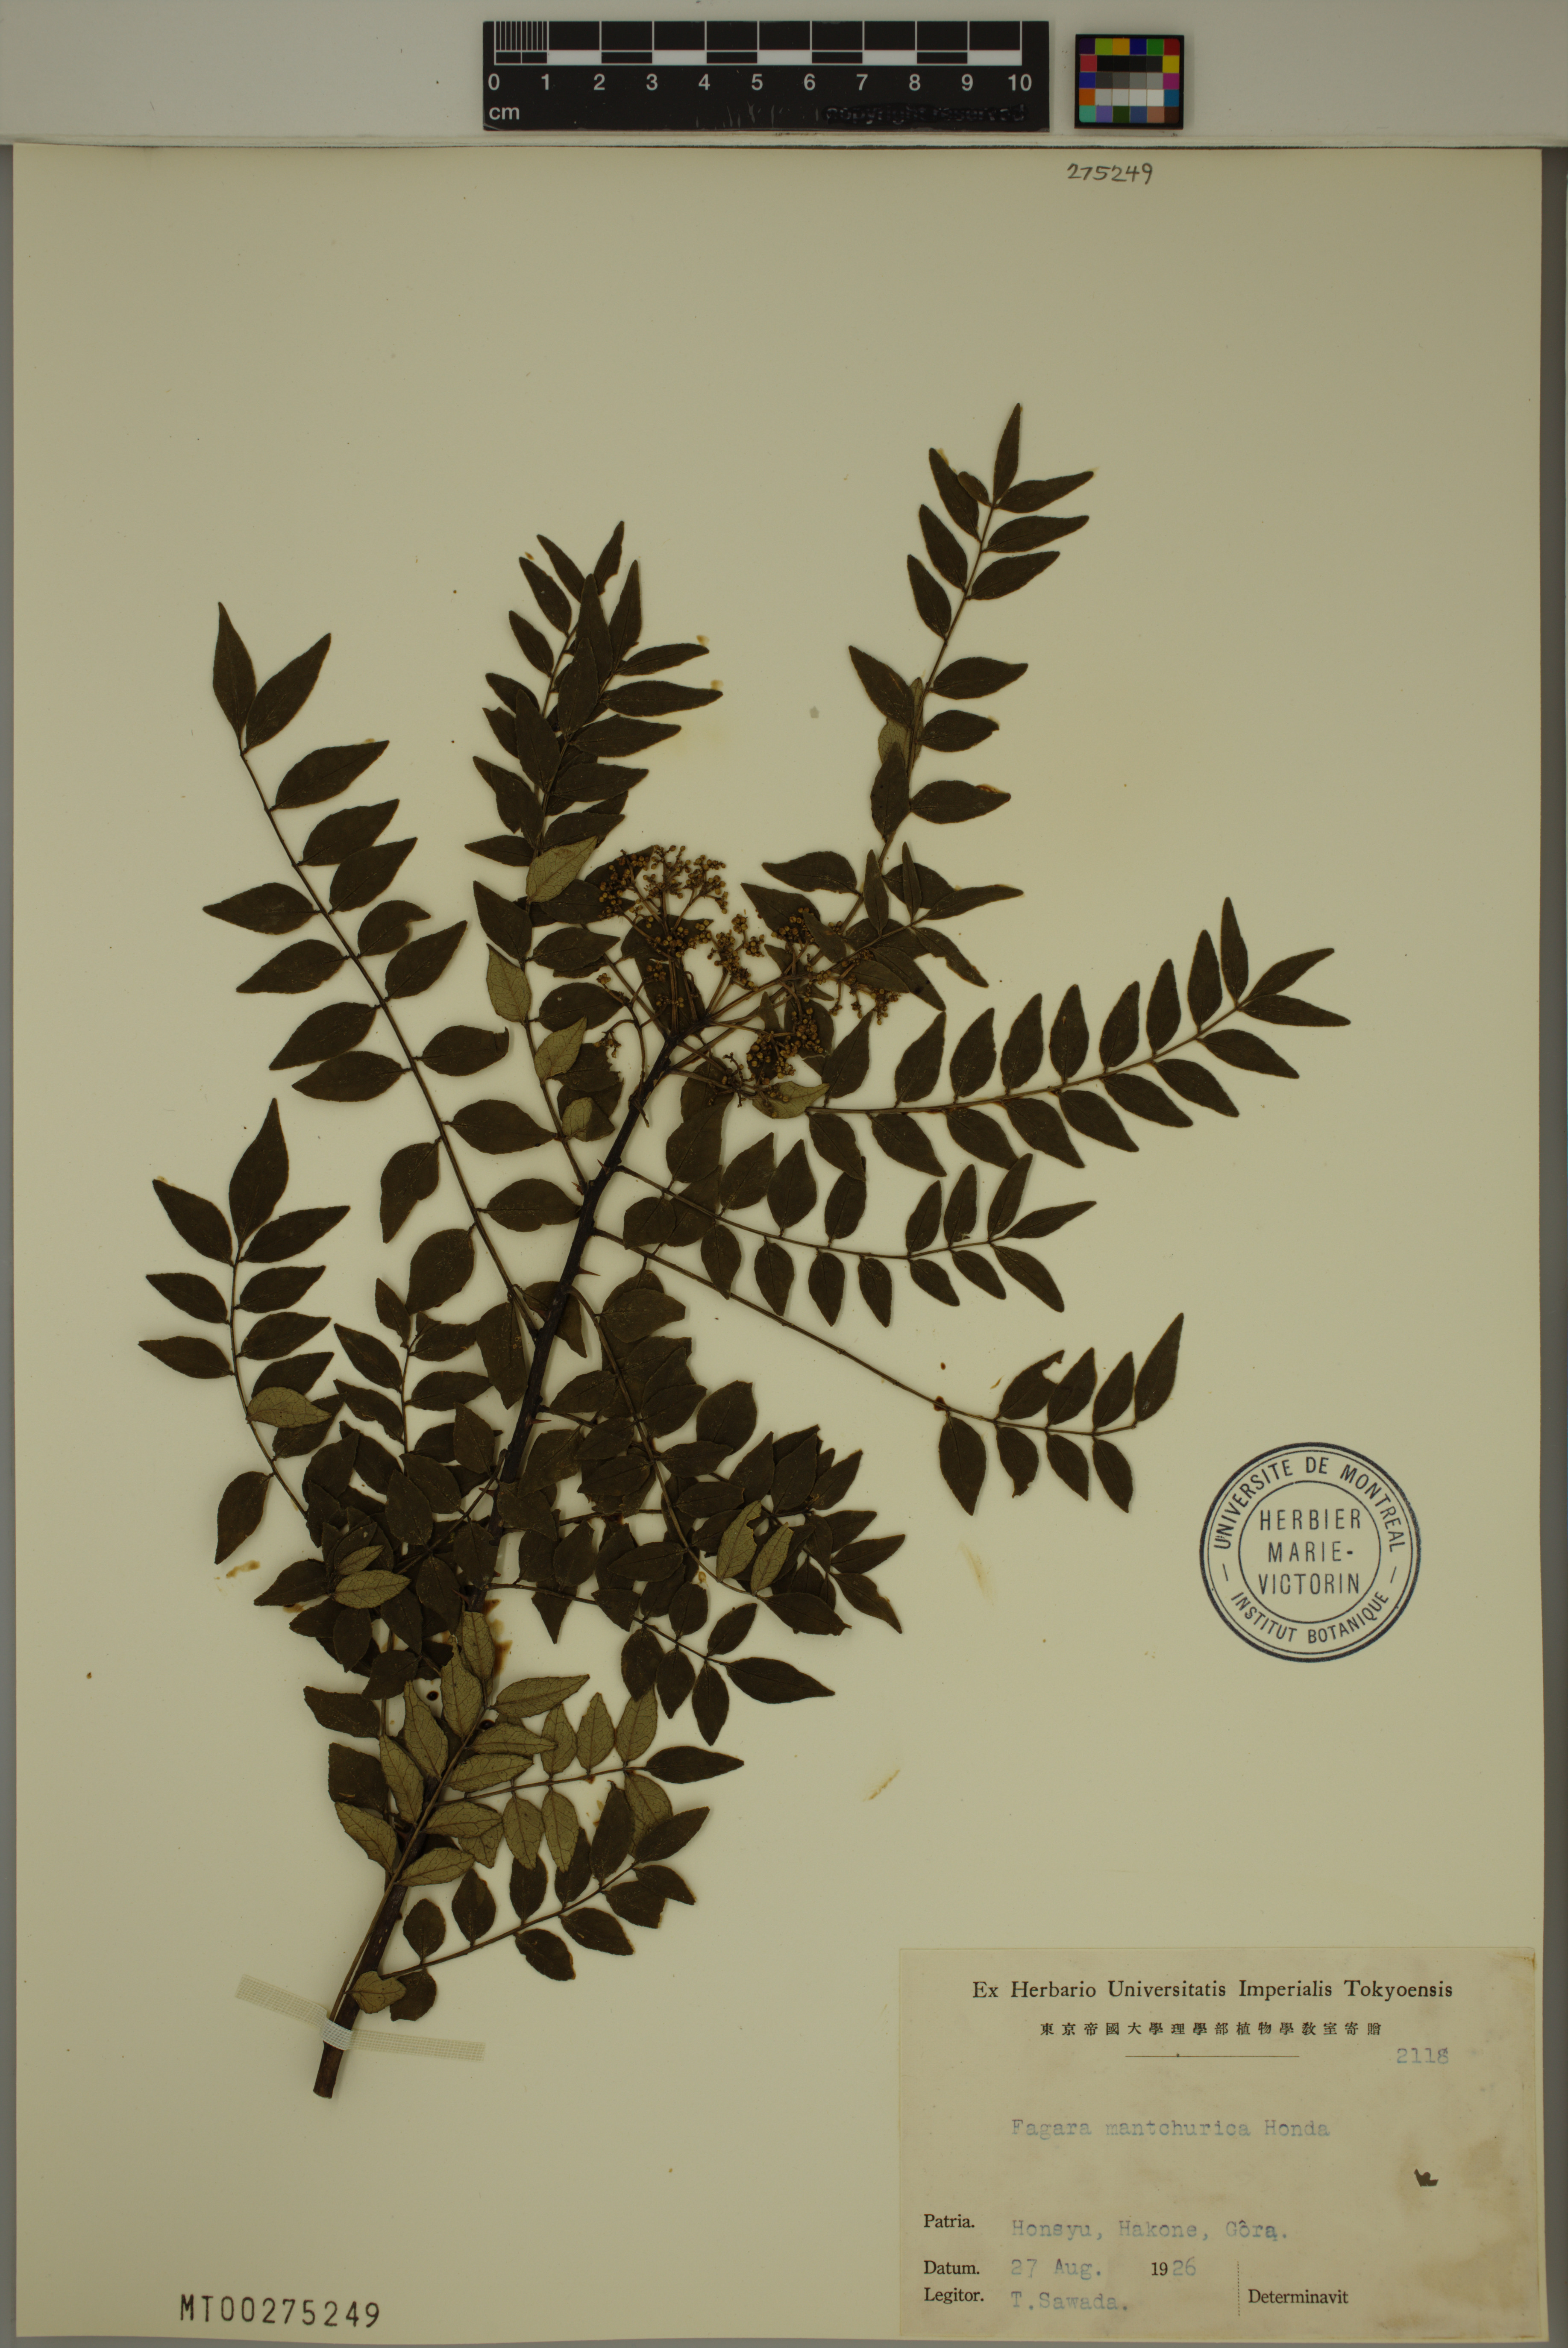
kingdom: Plantae
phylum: Tracheophyta
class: Magnoliopsida
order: Sapindales
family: Rutaceae
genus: Zanthoxylum
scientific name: Zanthoxylum schinifolium
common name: Sichuan-pepper
